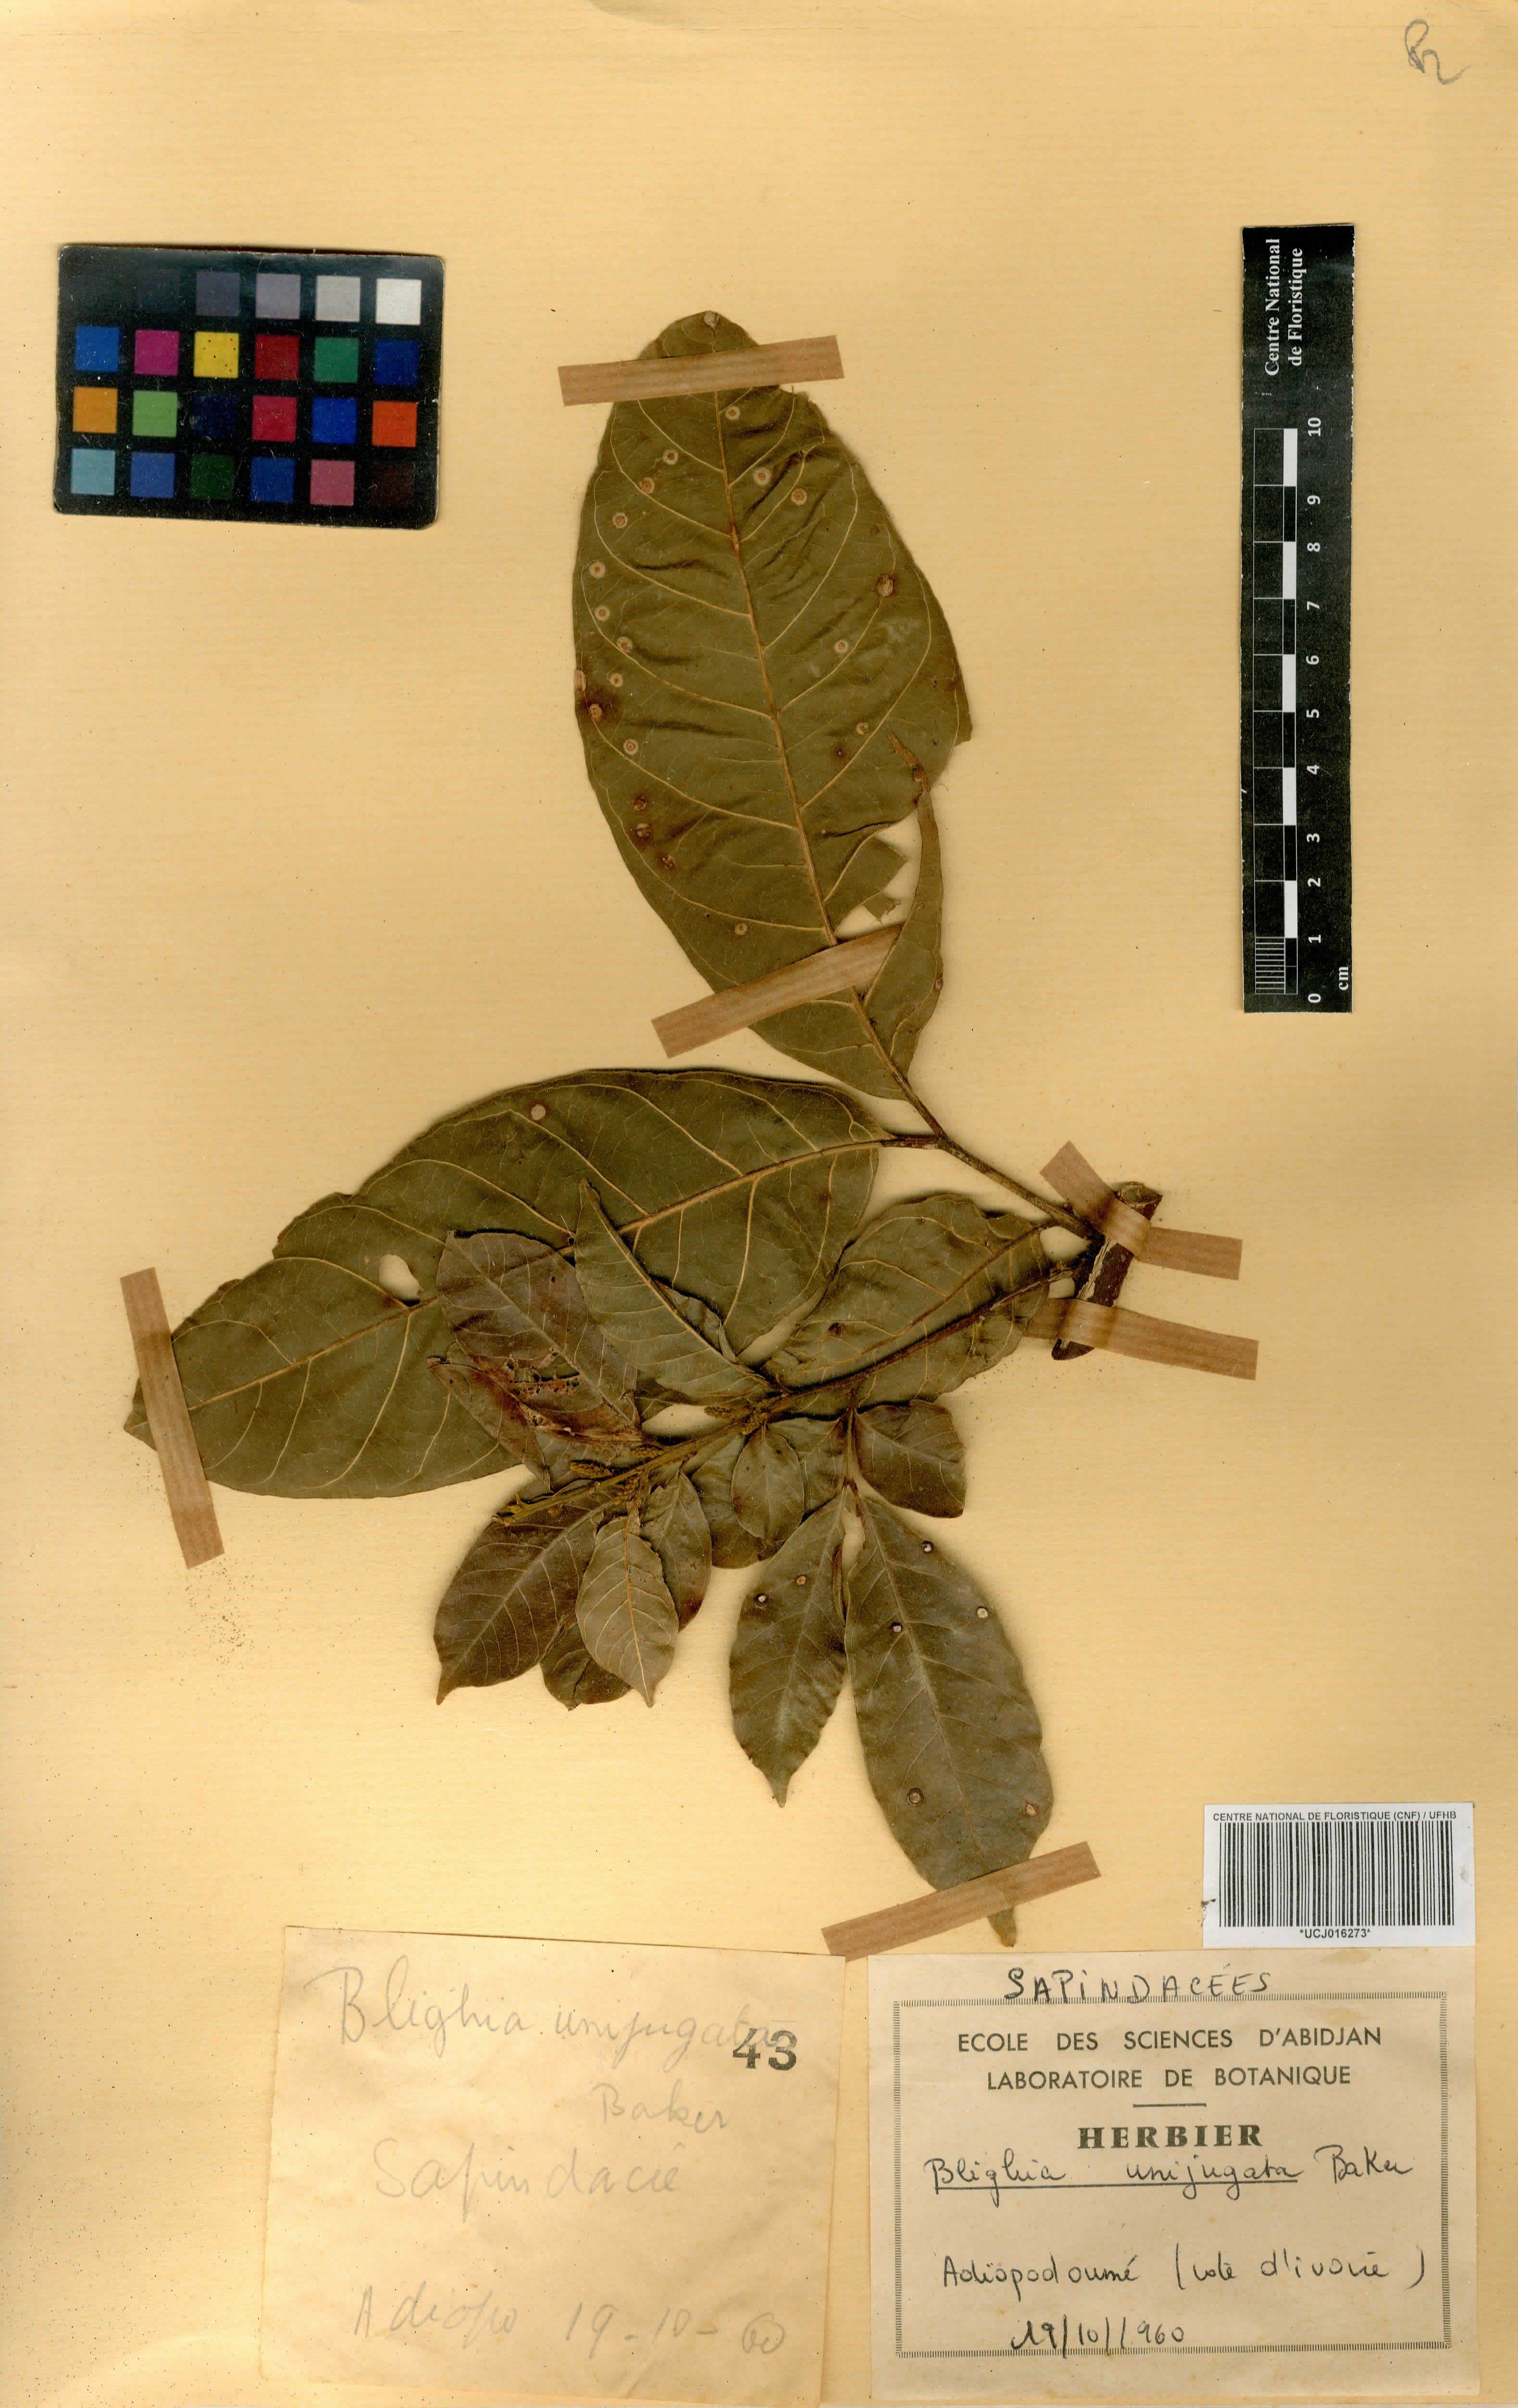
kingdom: Plantae
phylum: Tracheophyta
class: Magnoliopsida
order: Sapindales
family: Sapindaceae
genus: Blighia
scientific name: Blighia unijugata
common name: Triangle tops
